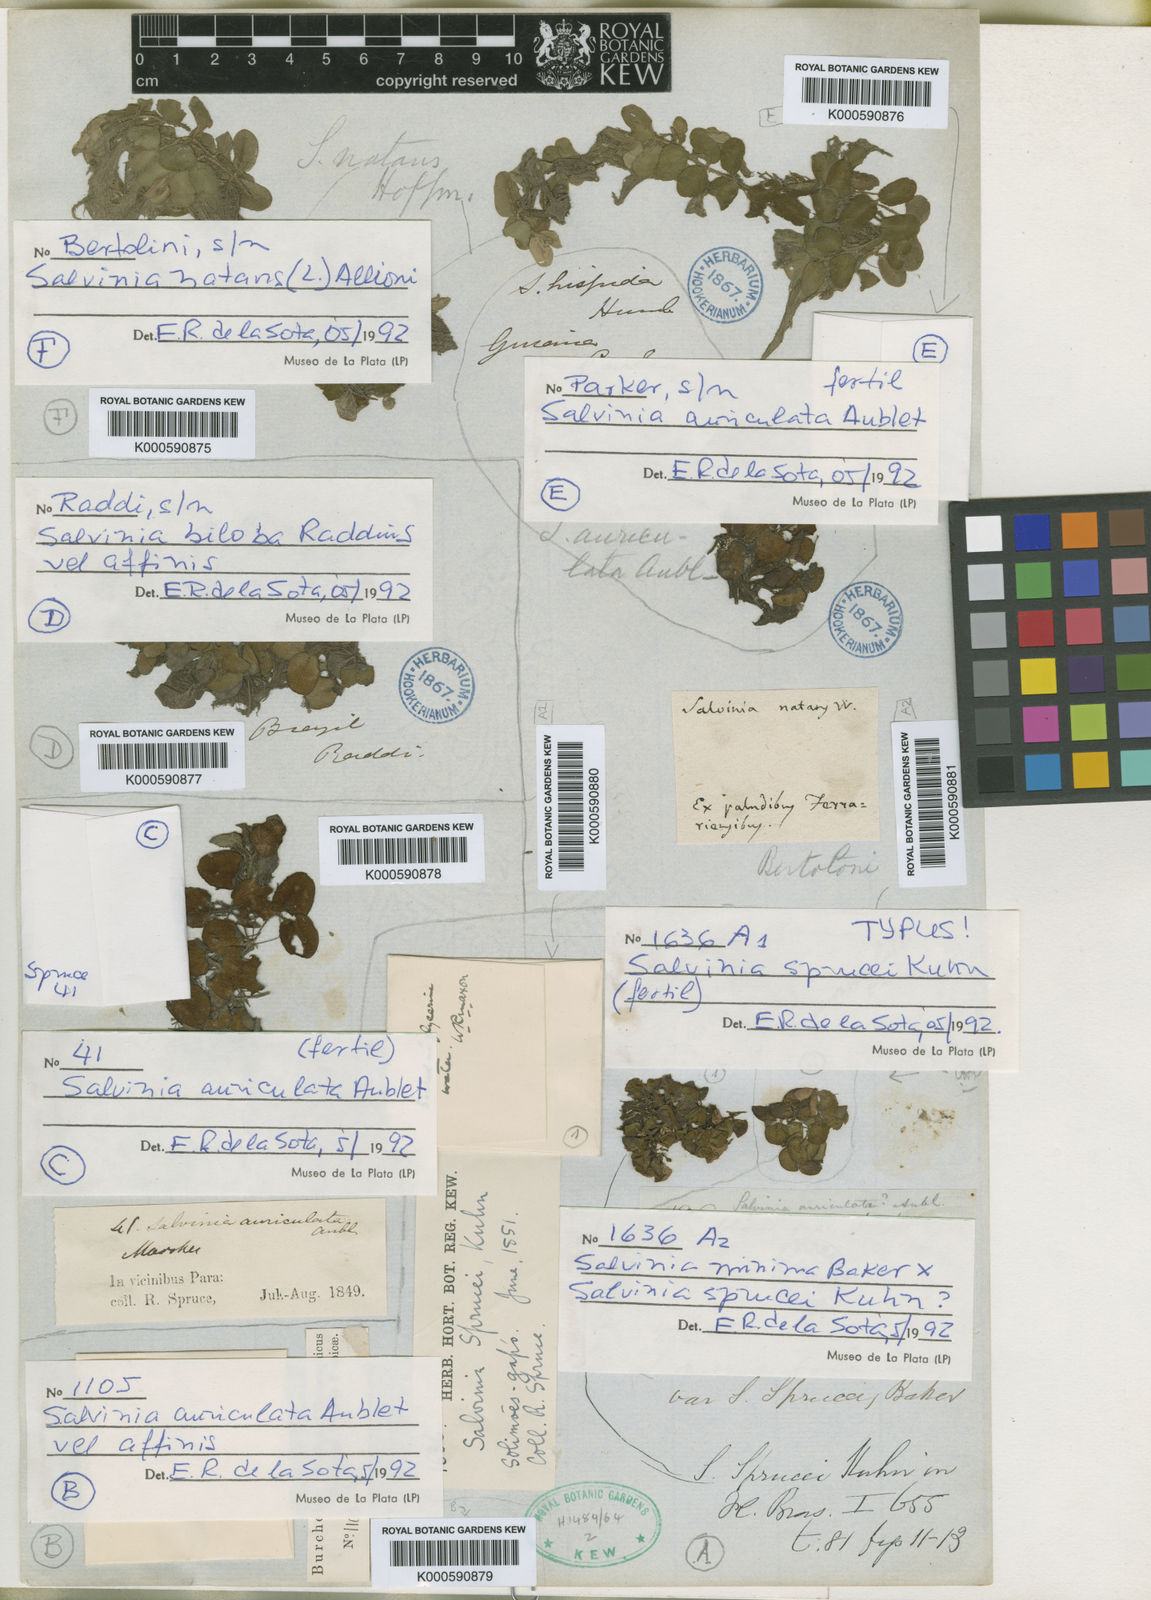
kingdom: Plantae
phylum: Tracheophyta
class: Polypodiopsida
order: Salviniales
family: Salviniaceae
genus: Salvinia
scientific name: Salvinia sprucei
